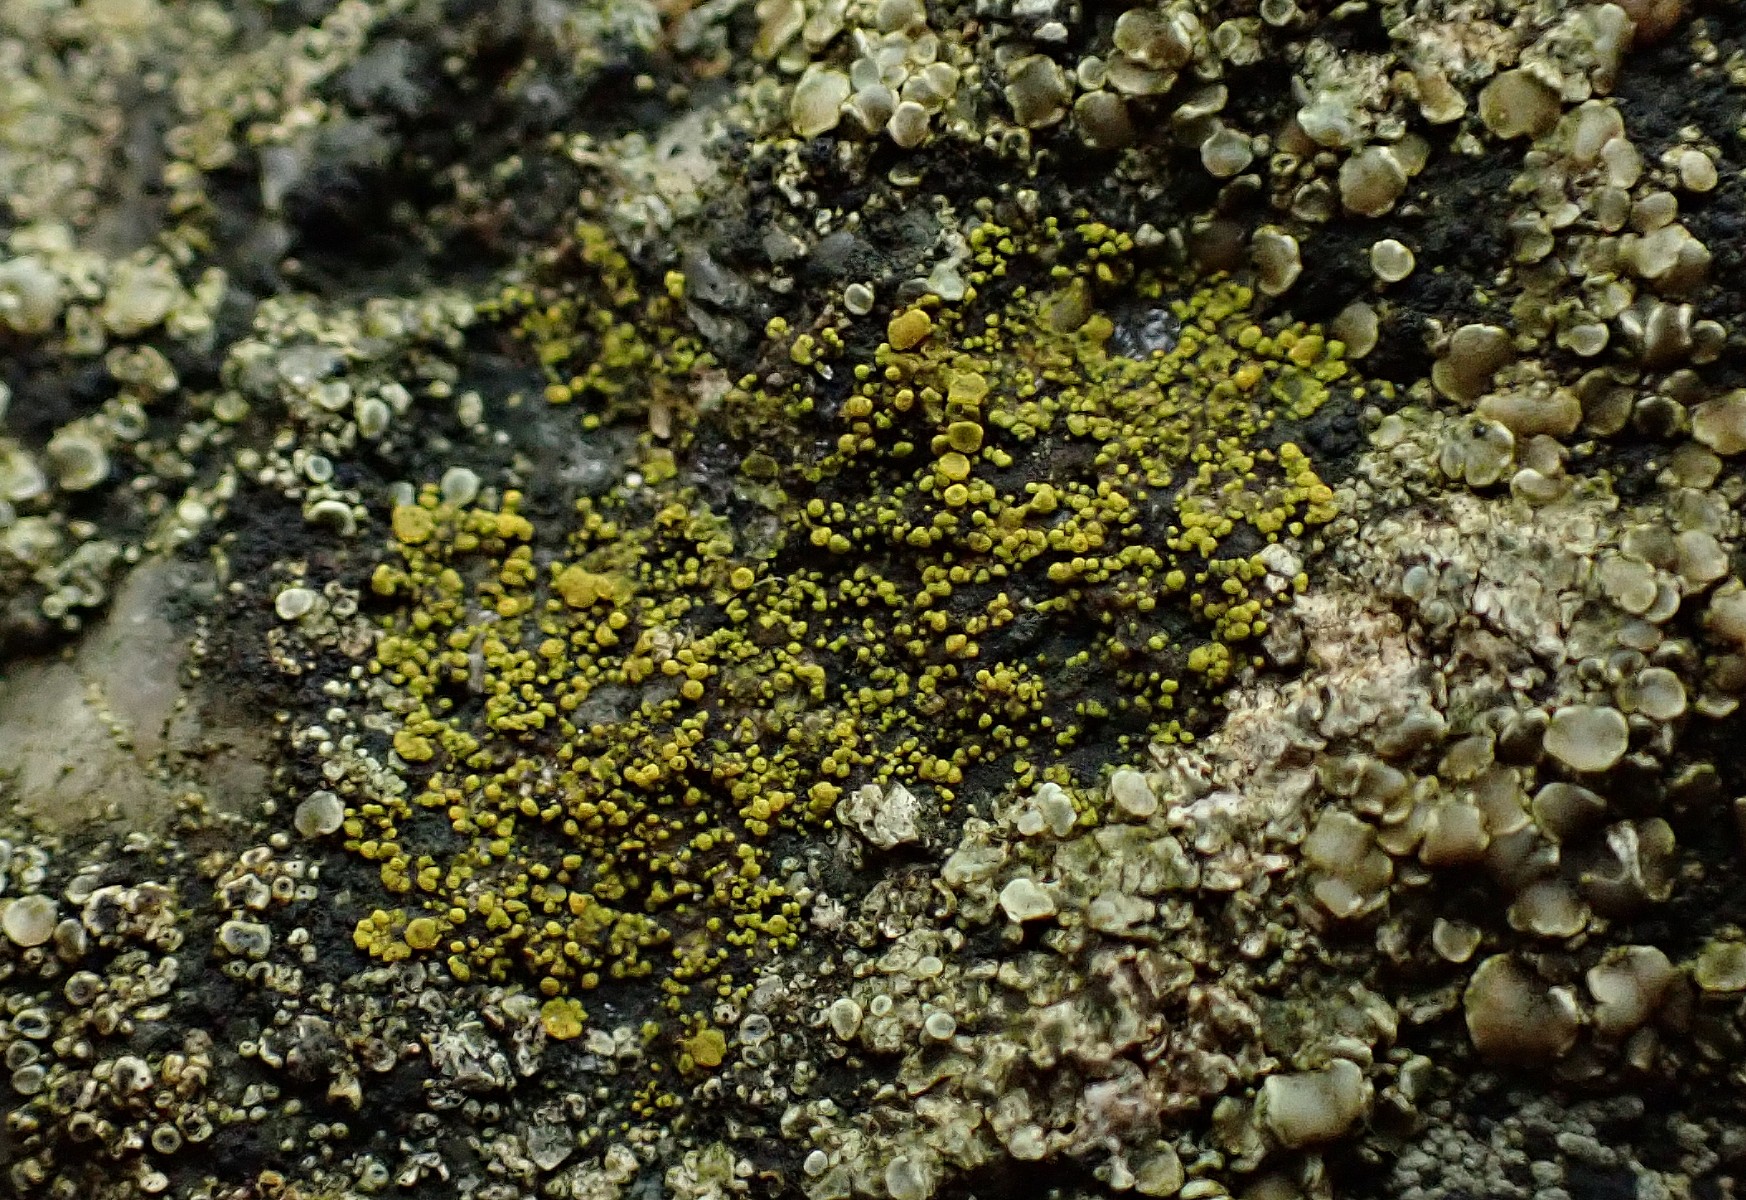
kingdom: Fungi
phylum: Ascomycota
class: Candelariomycetes
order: Candelariales
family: Candelariaceae
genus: Candelariella
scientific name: Candelariella vitellina
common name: almindelig æggeblommelav
